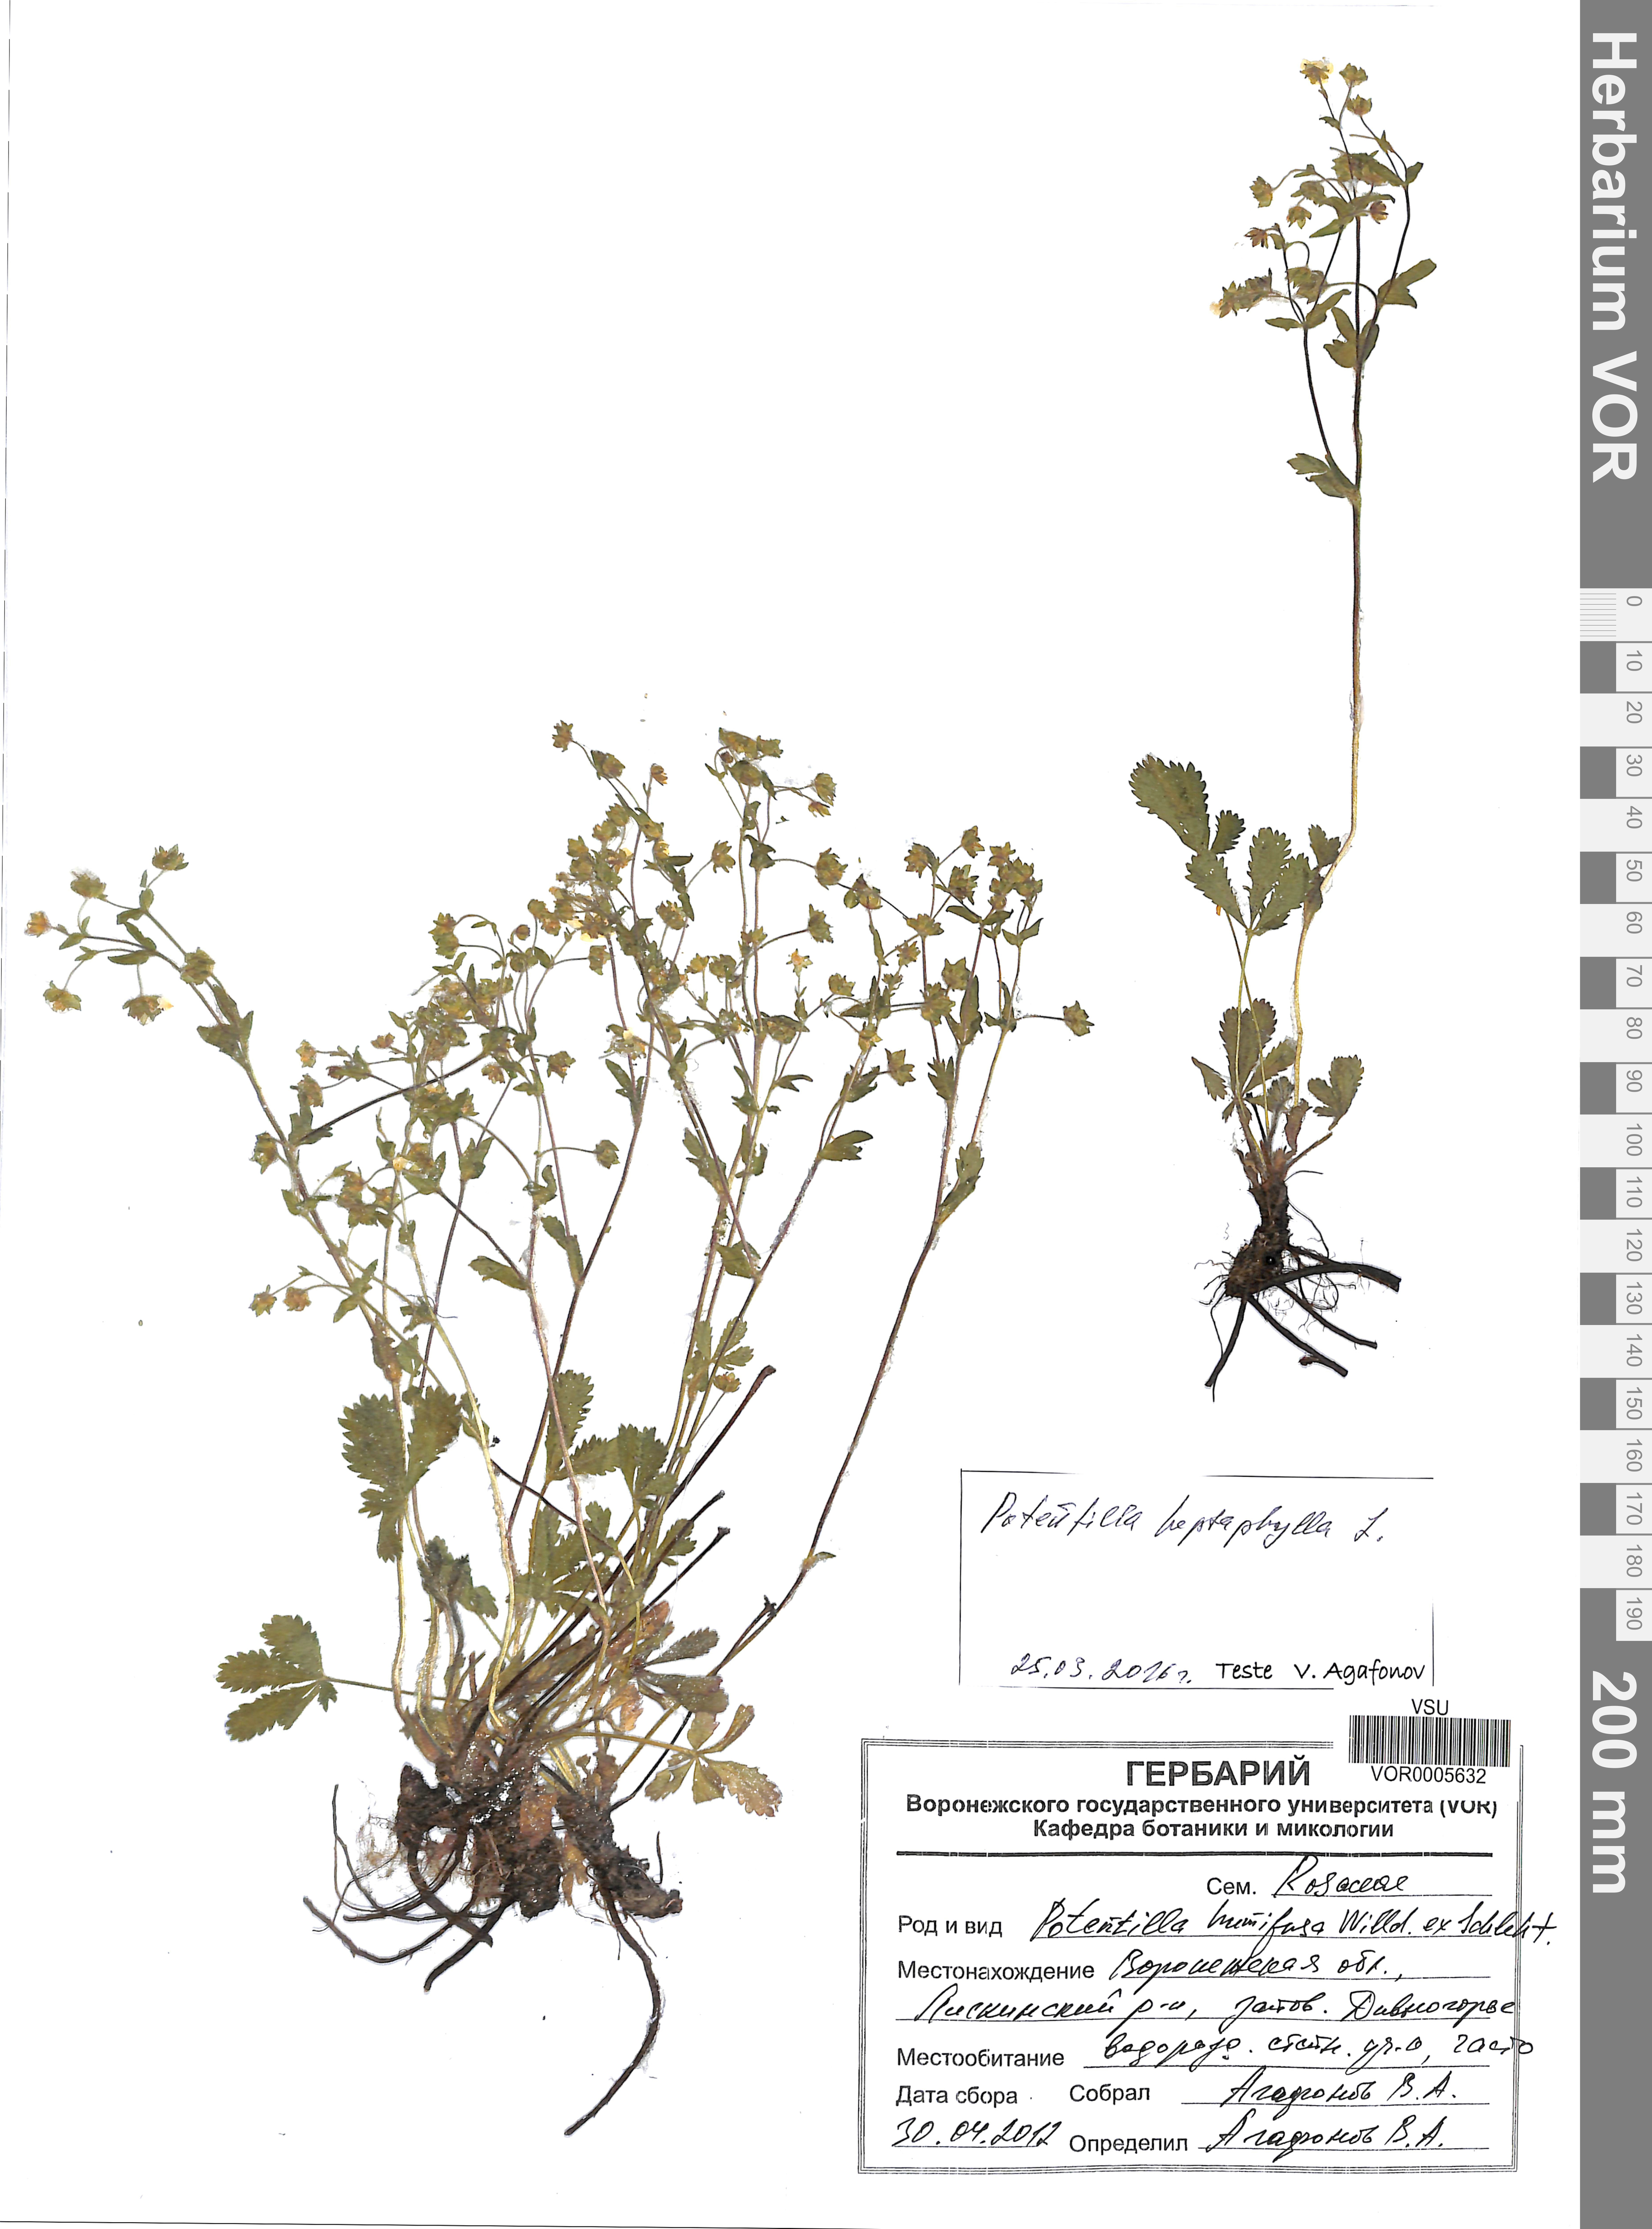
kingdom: Plantae
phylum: Tracheophyta
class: Magnoliopsida
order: Rosales
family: Rosaceae
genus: Potentilla
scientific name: Potentilla heptaphylla
